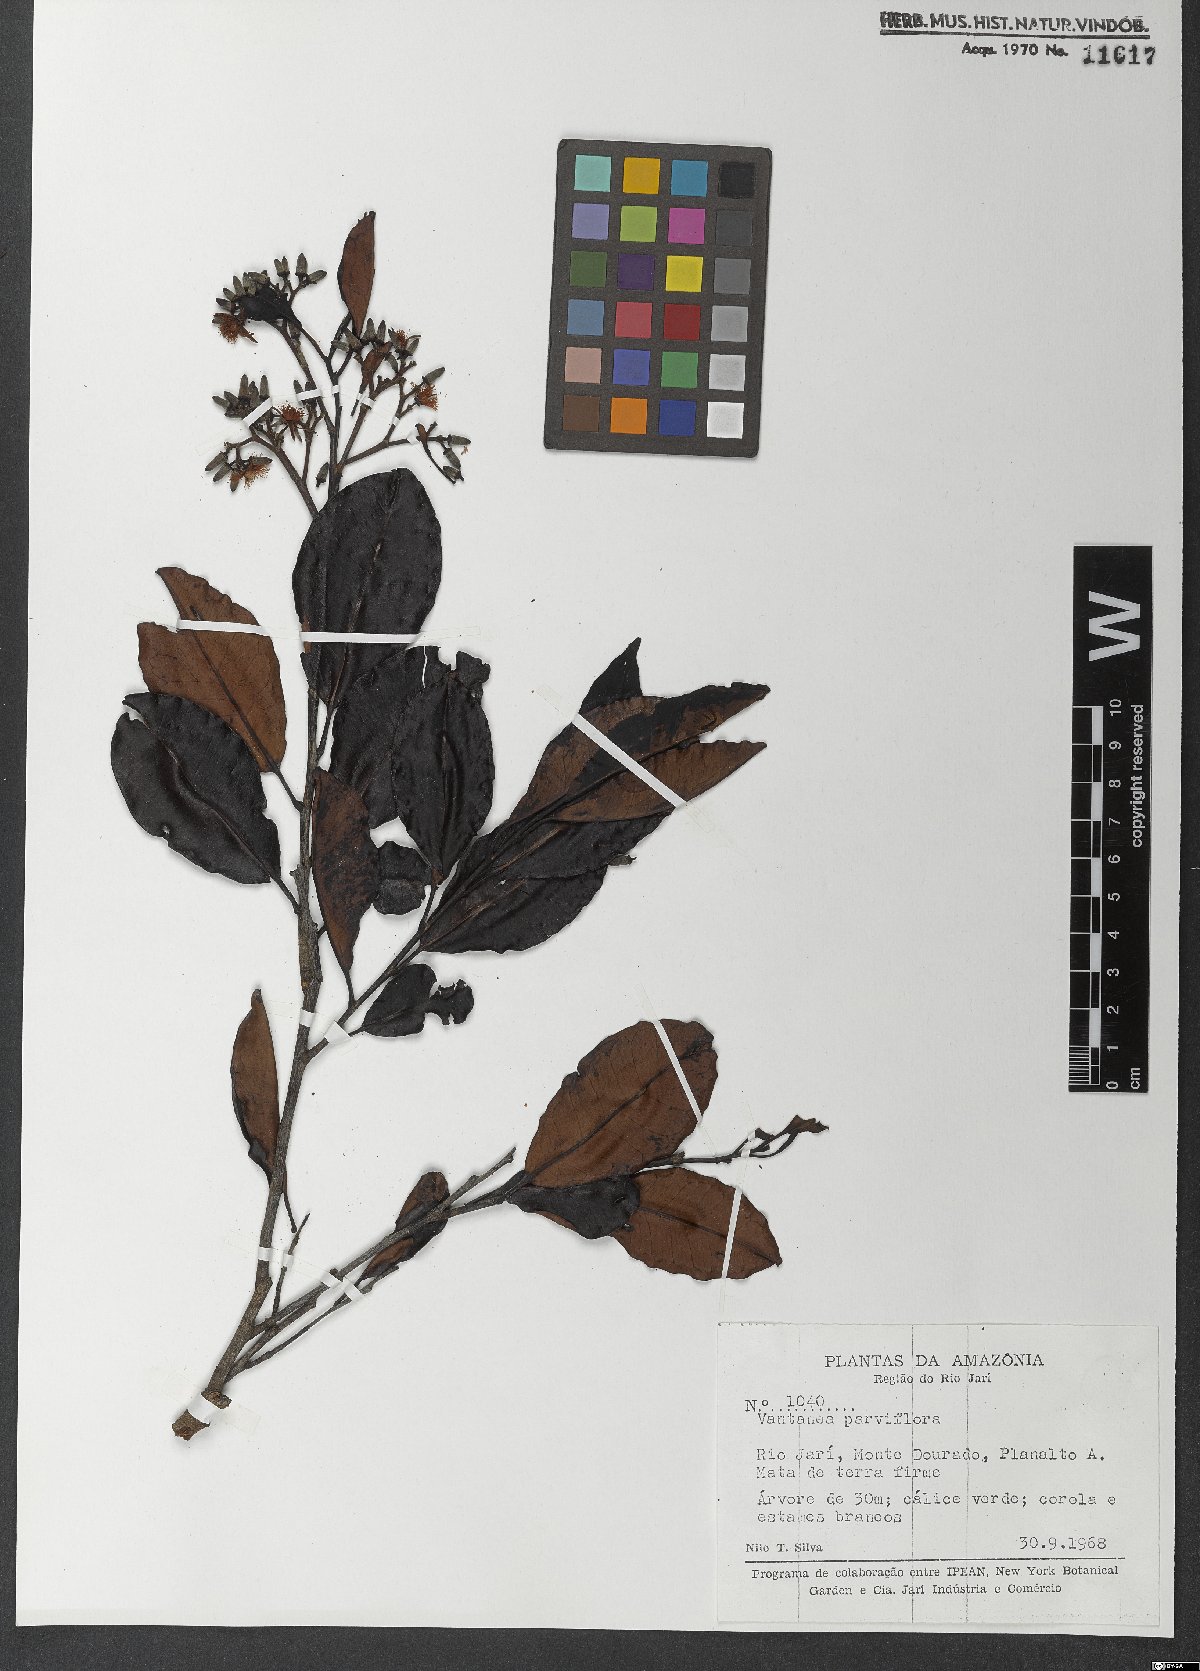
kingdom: Plantae
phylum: Tracheophyta
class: Magnoliopsida
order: Malpighiales
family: Humiriaceae
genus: Vantanea
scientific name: Vantanea parviflora
